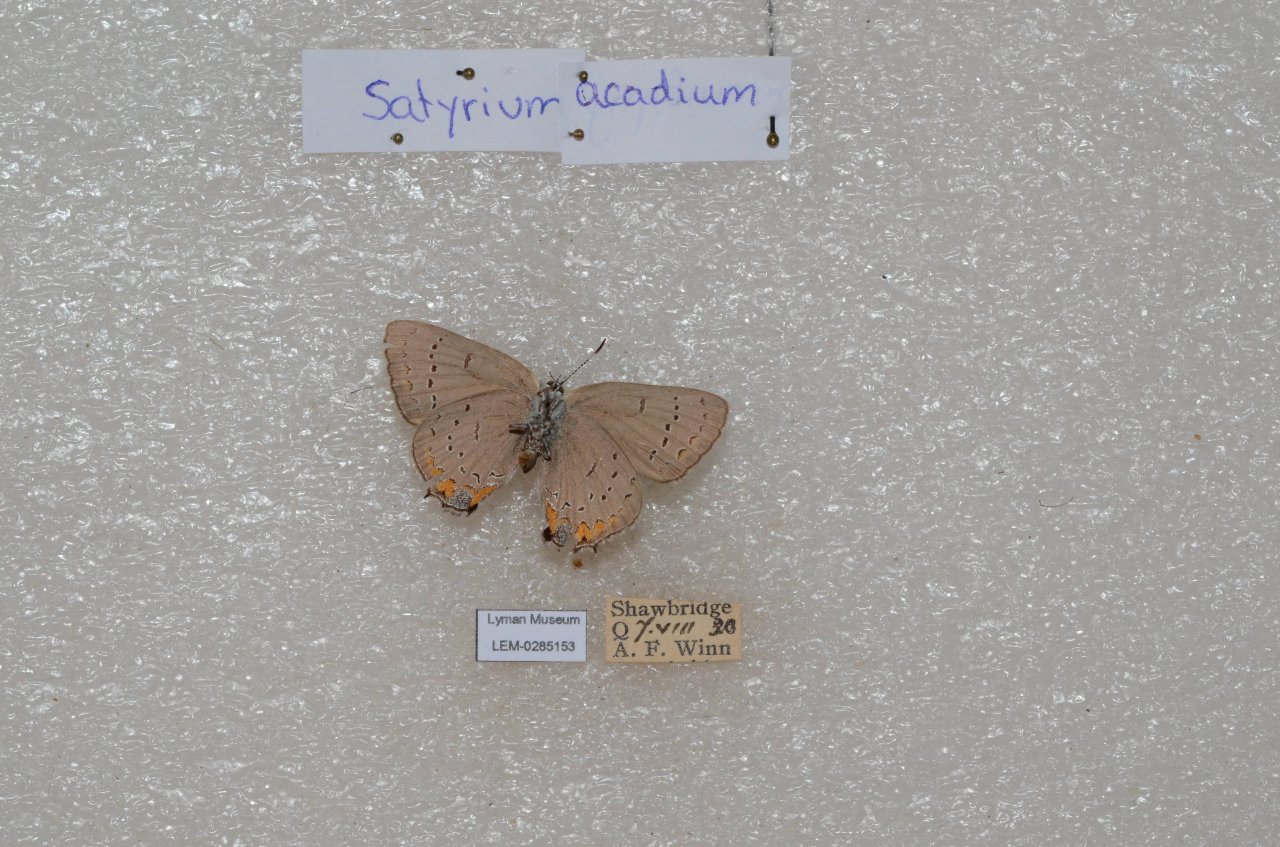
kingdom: Animalia
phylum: Arthropoda
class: Insecta
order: Lepidoptera
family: Lycaenidae
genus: Strymon
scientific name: Strymon acadica
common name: Acadian Hairstreak
